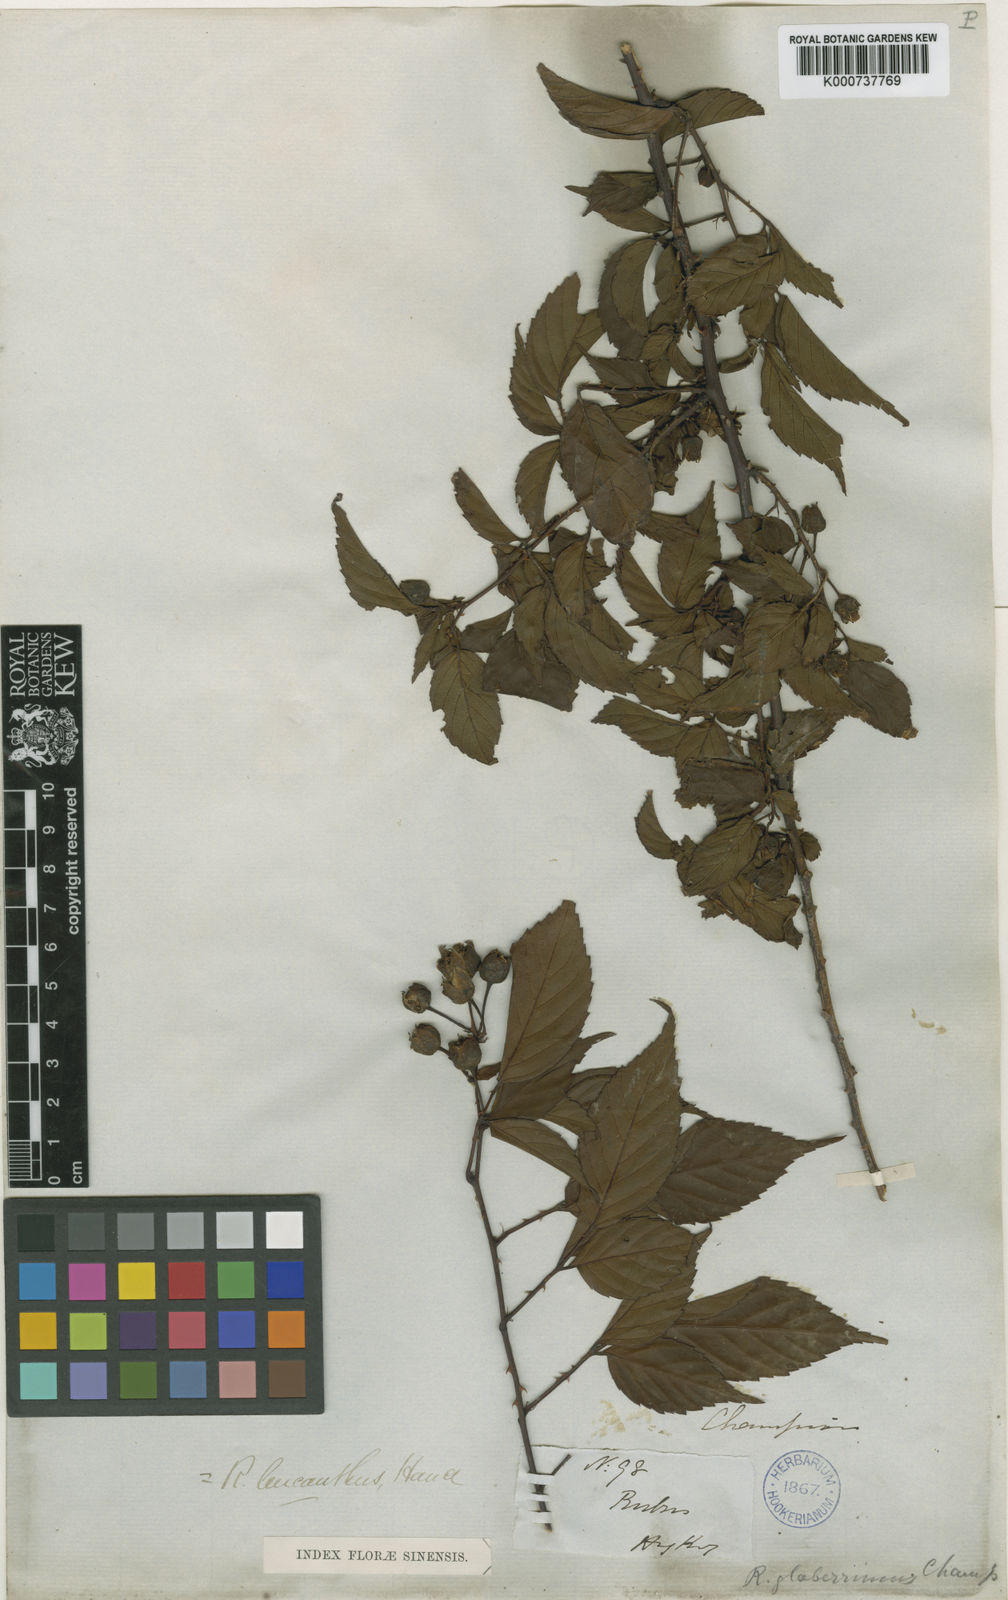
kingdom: Plantae
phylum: Tracheophyta
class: Magnoliopsida
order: Rosales
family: Rosaceae
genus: Rubus
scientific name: Rubus leucanthus
